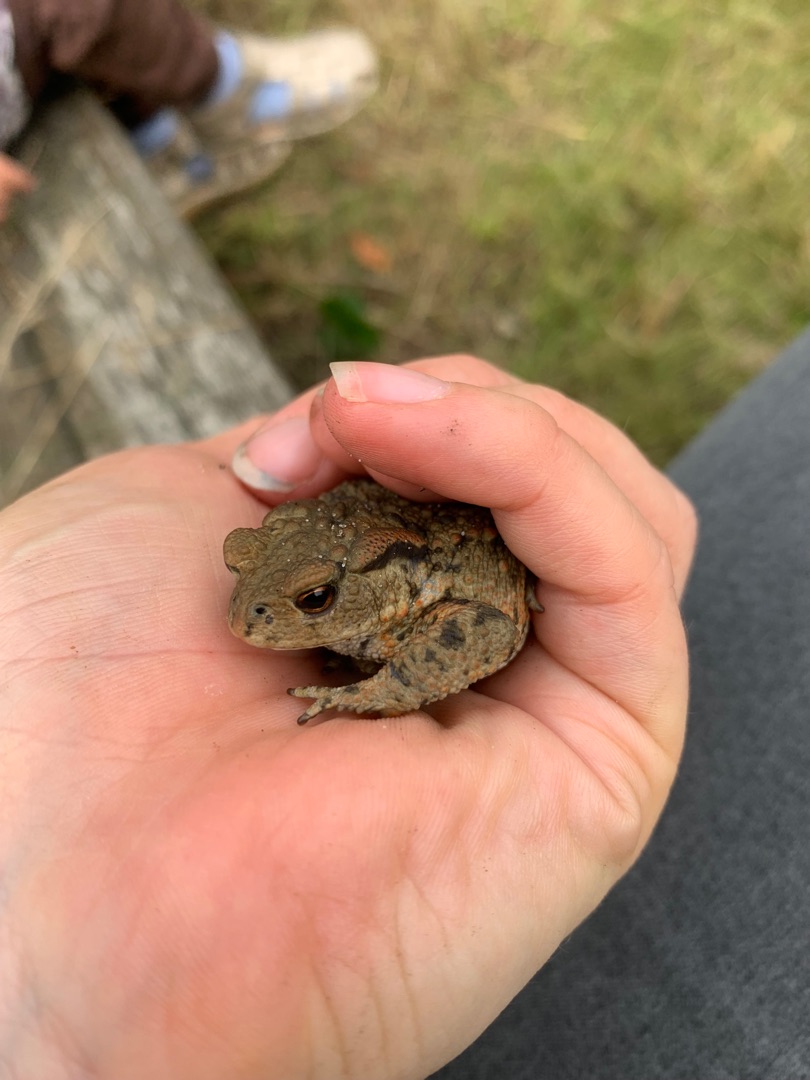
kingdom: Animalia
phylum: Chordata
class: Amphibia
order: Anura
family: Bufonidae
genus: Bufo
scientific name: Bufo bufo
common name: Skrubtudse
